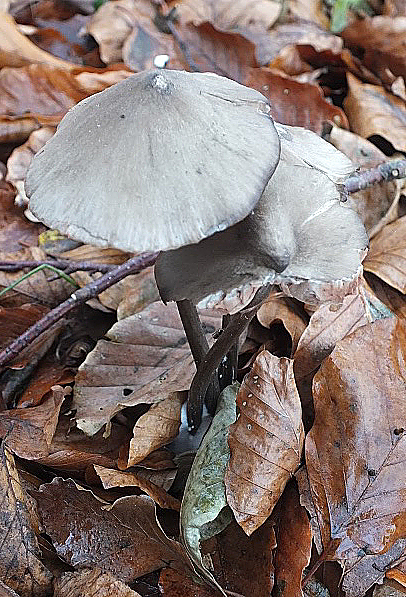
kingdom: Fungi
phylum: Basidiomycota
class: Agaricomycetes
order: Agaricales
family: Entolomataceae
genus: Entoloma
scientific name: Entoloma hirtipes
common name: kegle-rødblad
